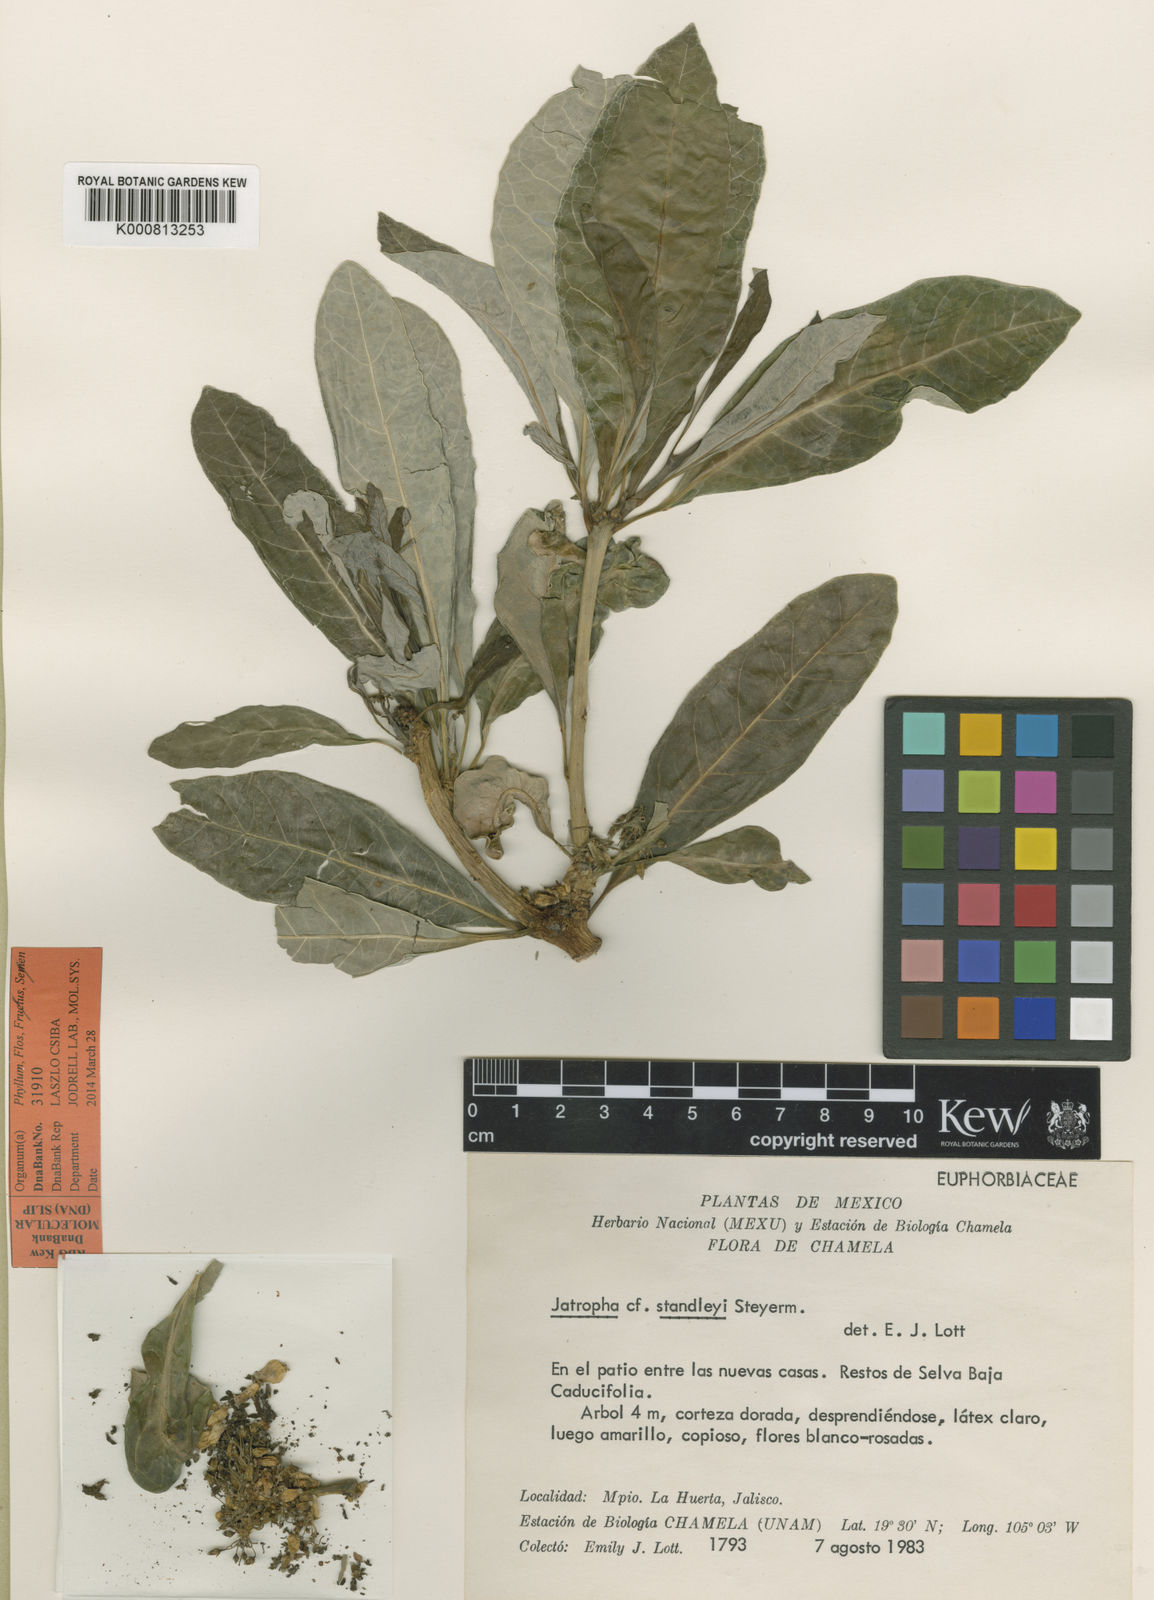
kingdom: Plantae
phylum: Tracheophyta
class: Magnoliopsida
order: Malpighiales
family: Euphorbiaceae
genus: Jatropha
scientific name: Jatropha standleyi
